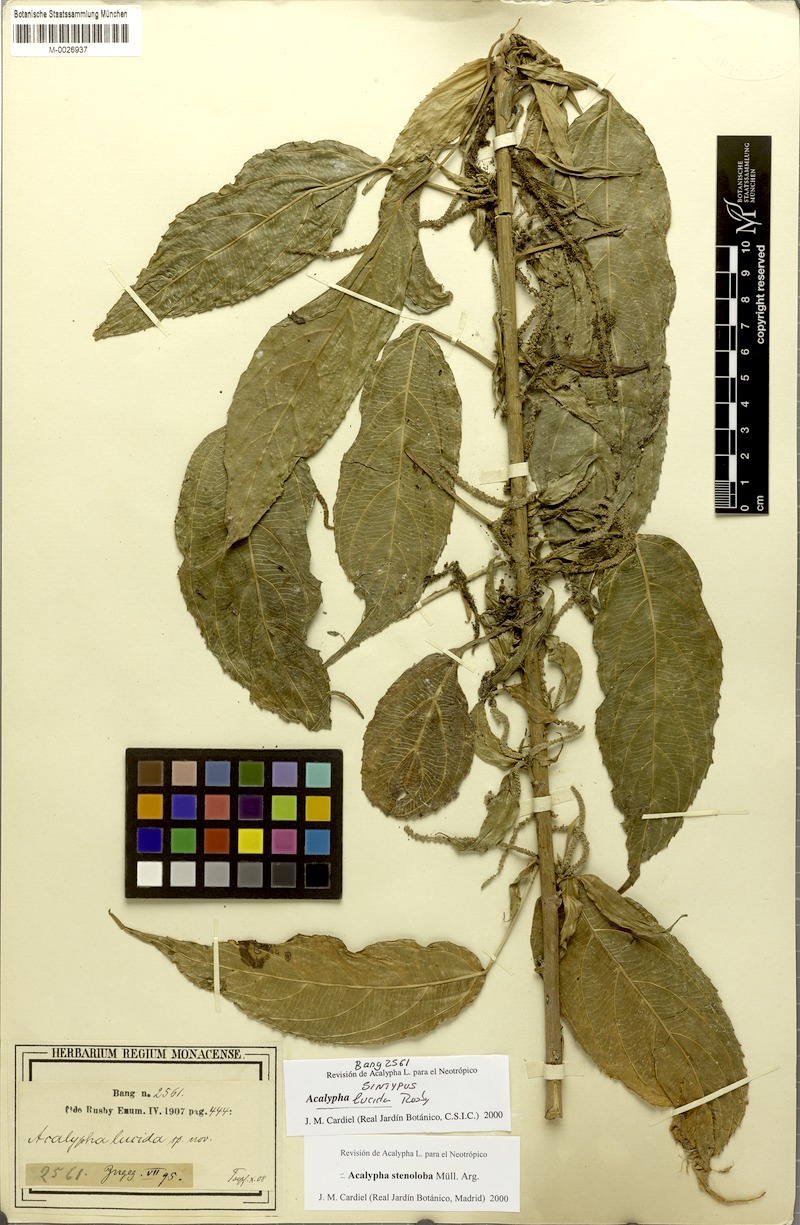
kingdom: Plantae
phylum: Tracheophyta
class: Magnoliopsida
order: Malpighiales
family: Euphorbiaceae
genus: Acalypha
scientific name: Acalypha stenoloba
